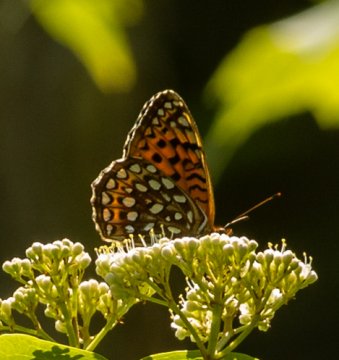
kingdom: Animalia
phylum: Arthropoda
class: Insecta
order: Lepidoptera
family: Nymphalidae
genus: Speyeria
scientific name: Speyeria
